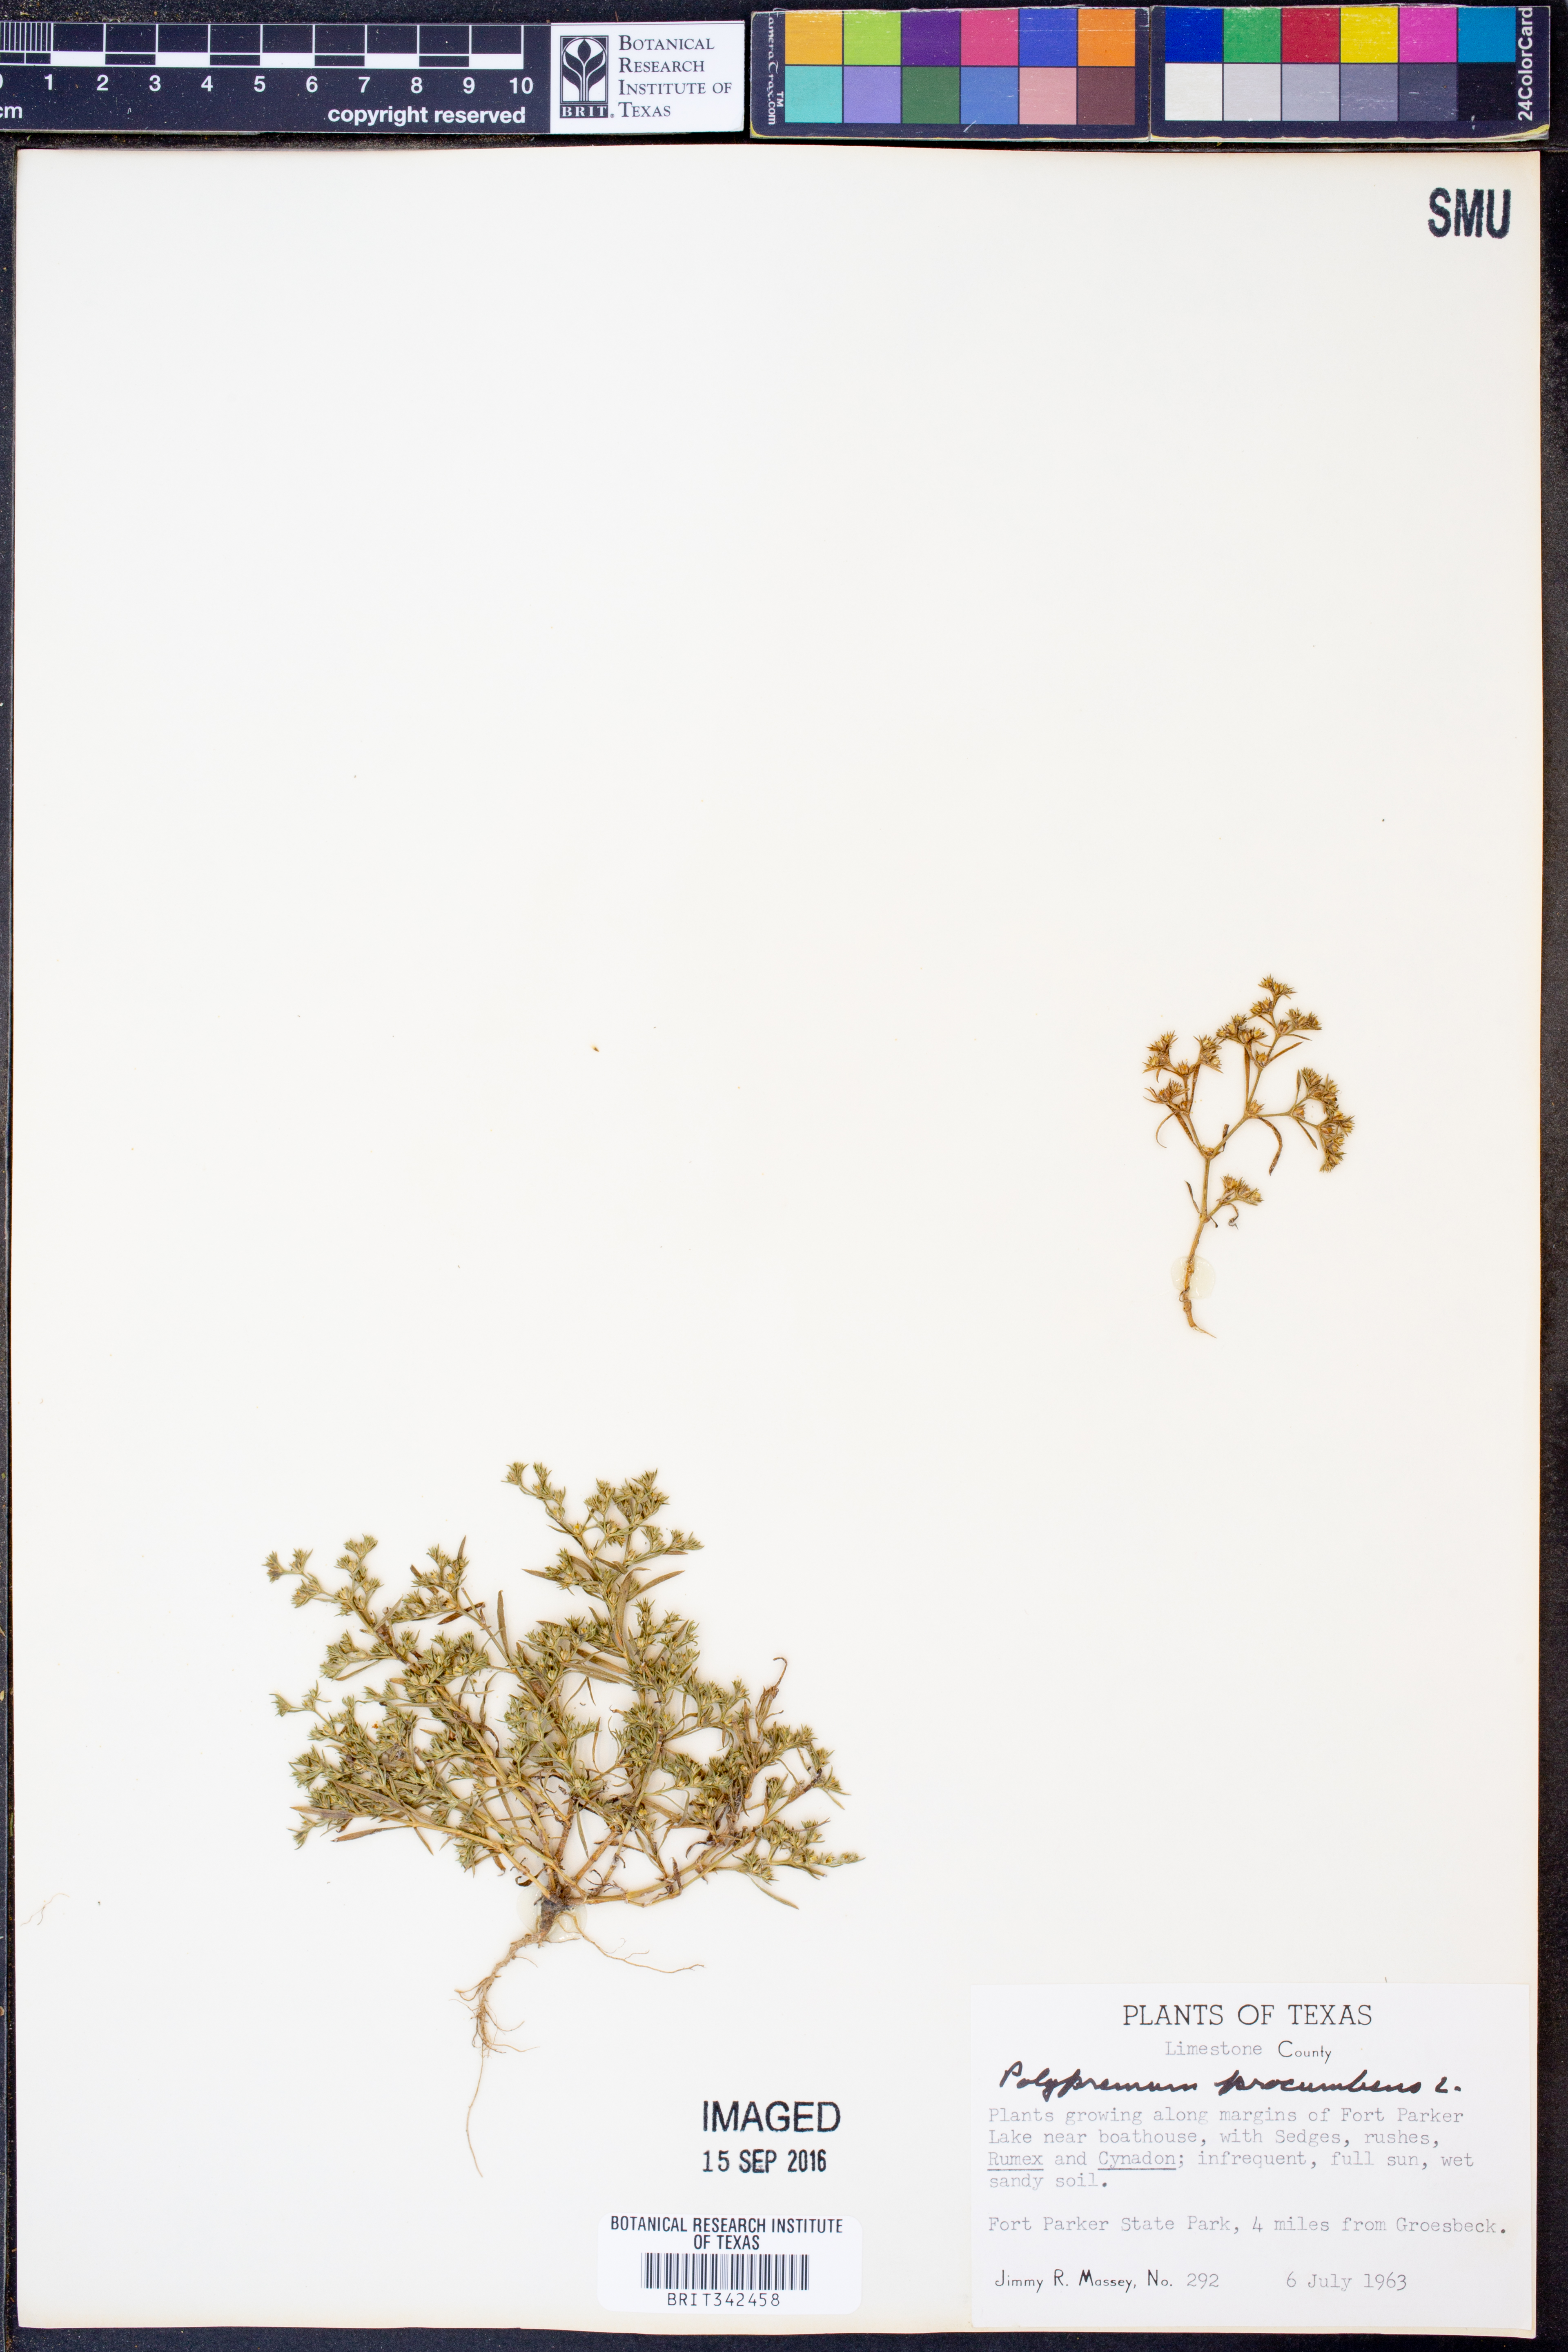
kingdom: Plantae
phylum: Tracheophyta
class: Magnoliopsida
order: Lamiales
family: Tetrachondraceae
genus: Polypremum
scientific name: Polypremum procumbens
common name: Juniper-leaf
